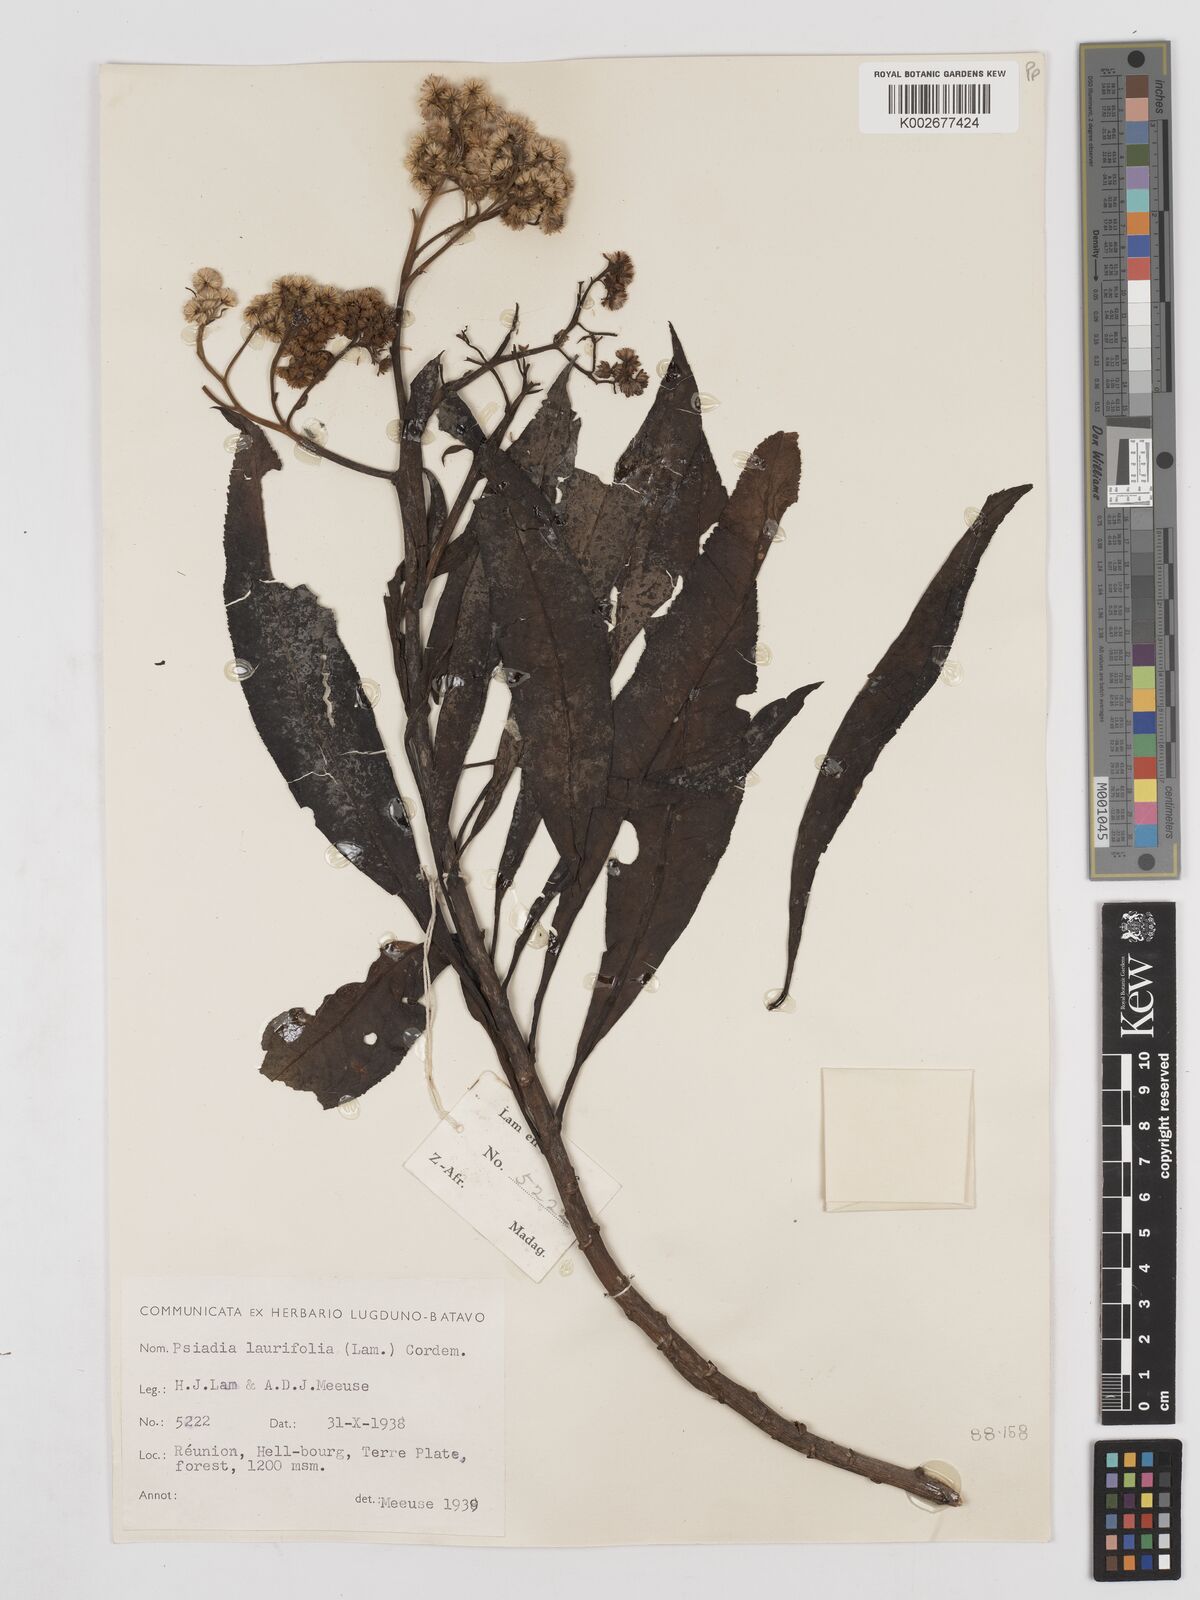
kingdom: Plantae
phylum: Tracheophyta
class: Magnoliopsida
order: Asterales
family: Asteraceae
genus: Psiadia
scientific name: Psiadia laurifolia
